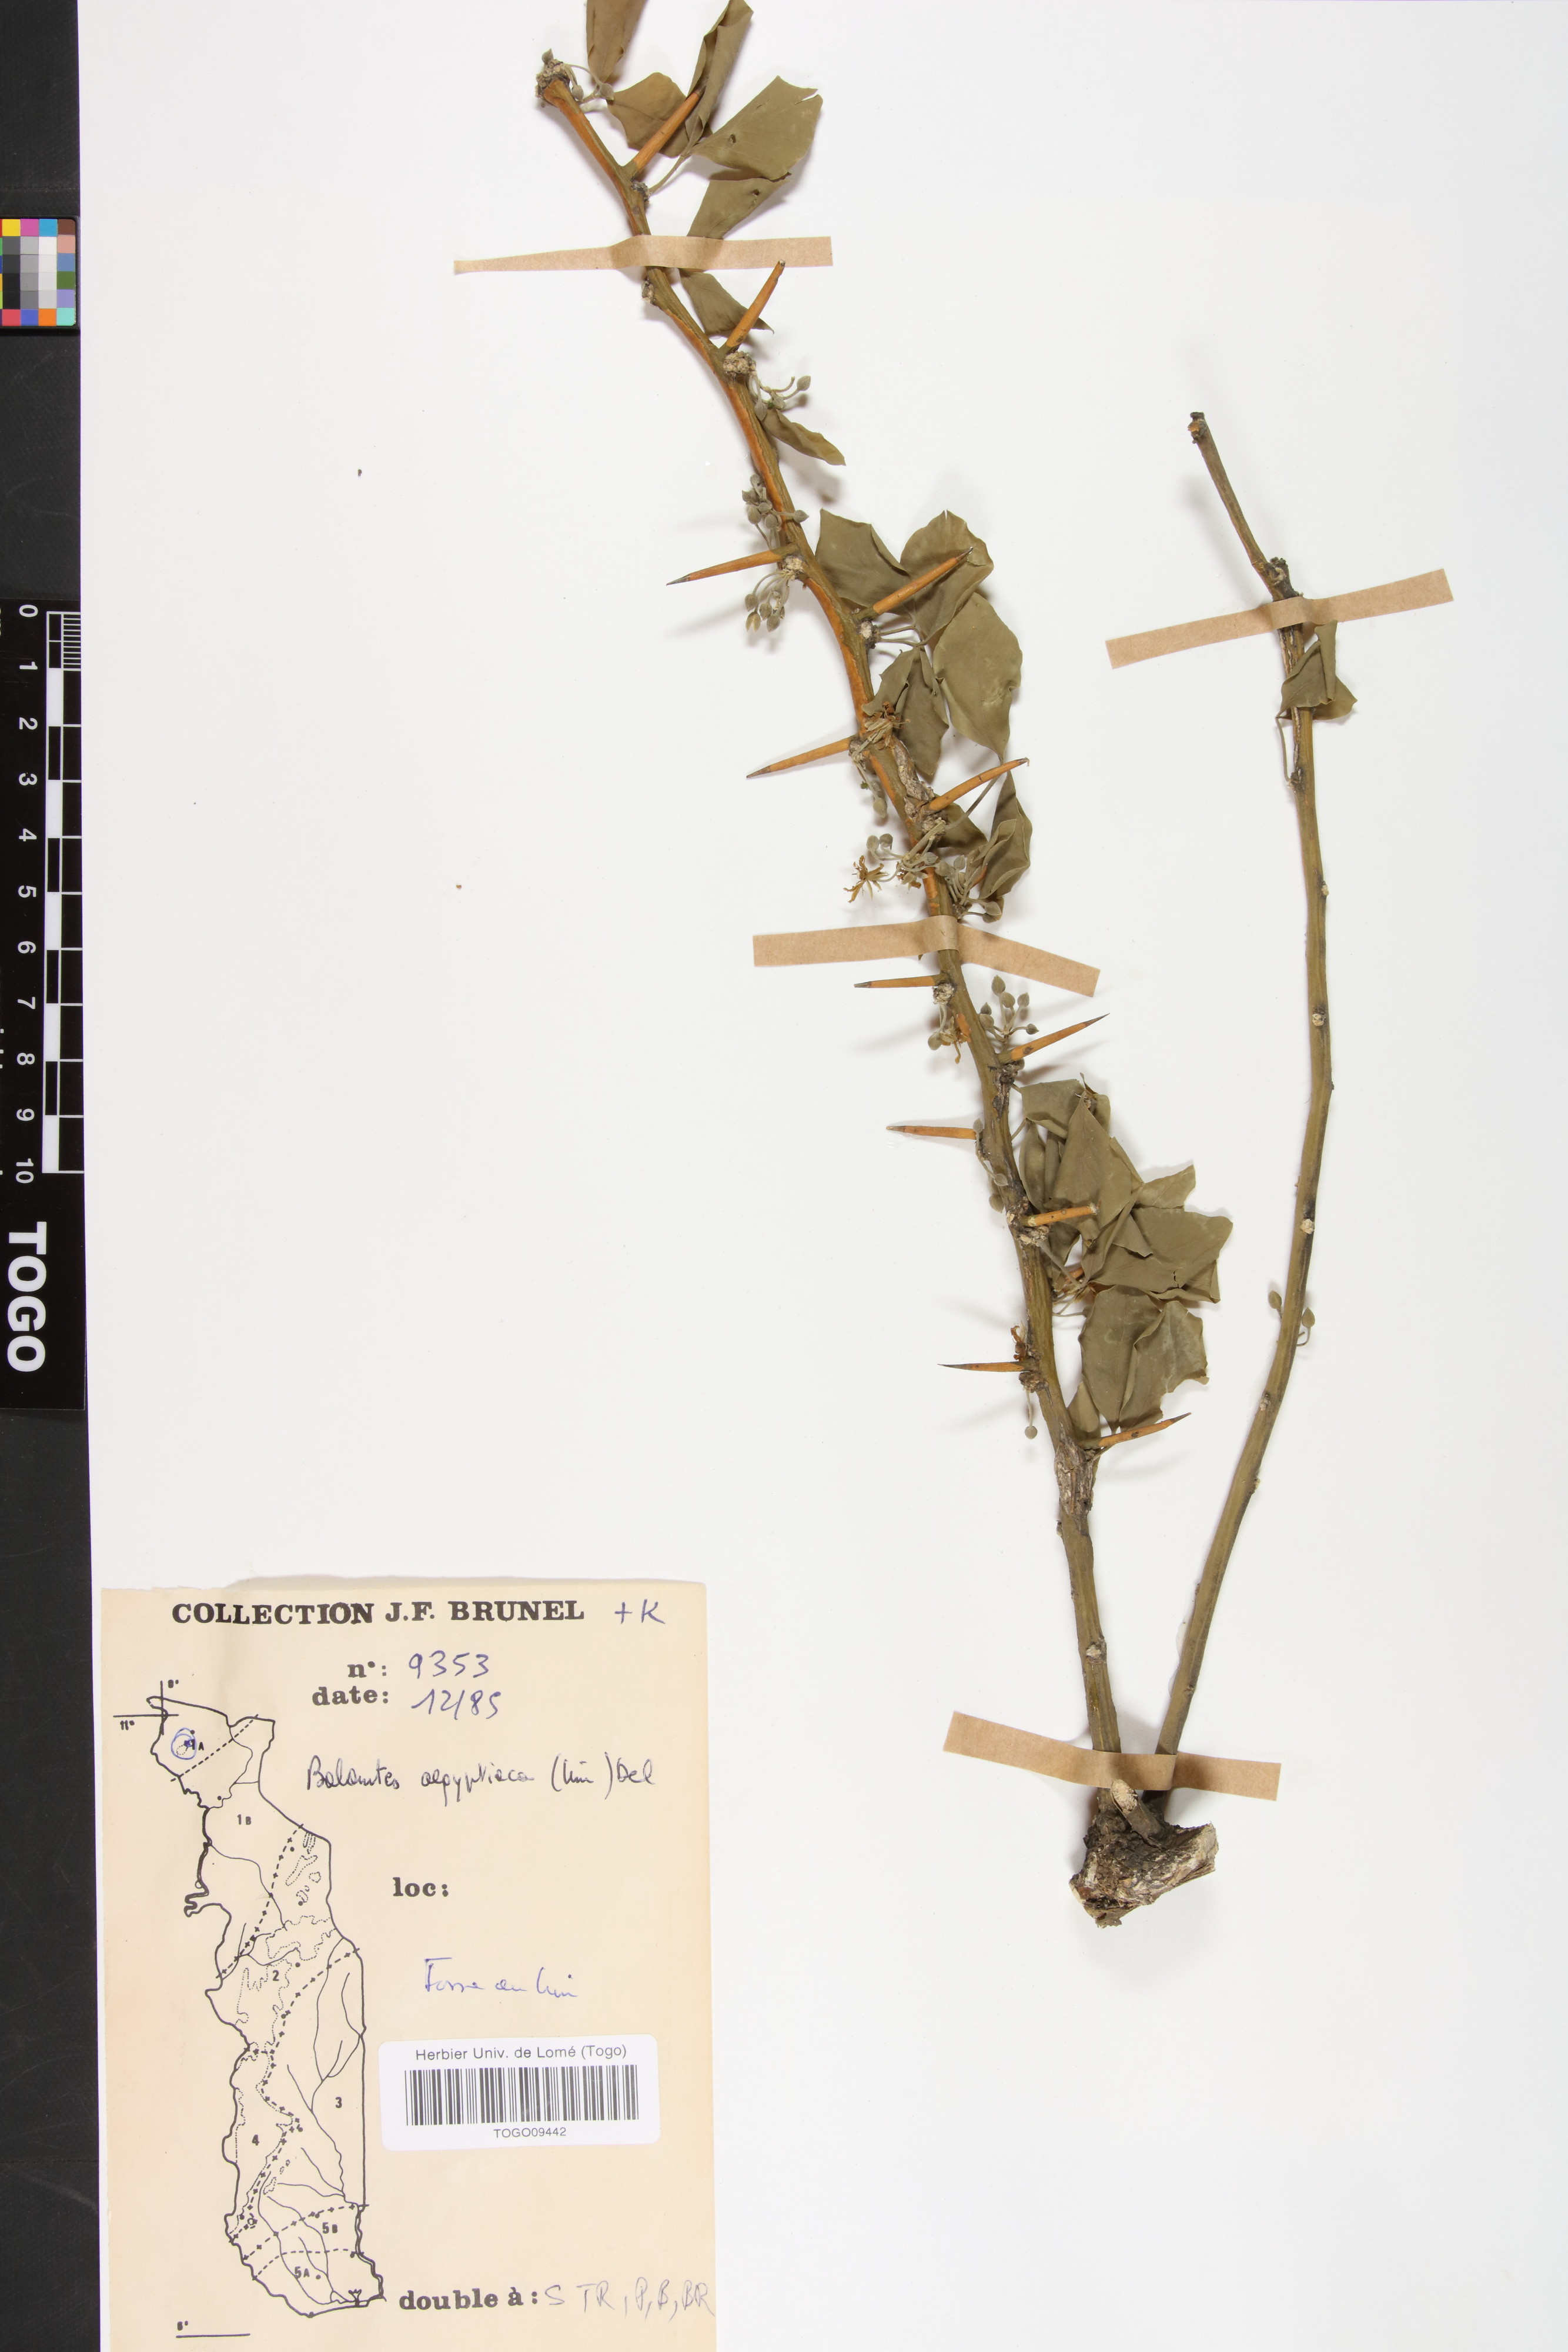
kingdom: Plantae
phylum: Tracheophyta
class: Magnoliopsida
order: Zygophyllales
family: Zygophyllaceae
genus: Balanites
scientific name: Balanites aegyptiaca
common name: Balanites
